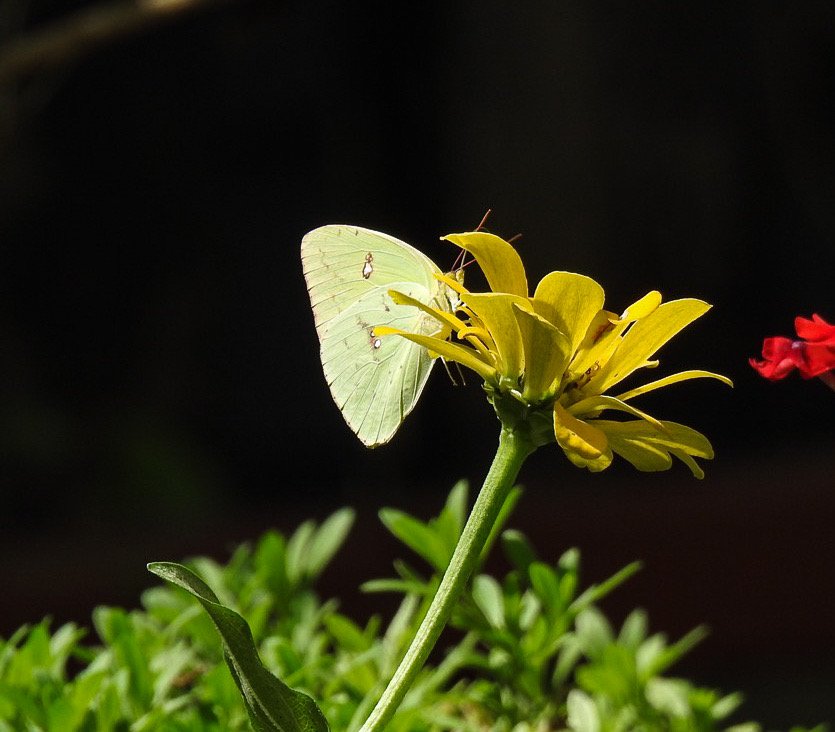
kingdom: Animalia
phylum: Arthropoda
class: Insecta
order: Lepidoptera
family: Pieridae
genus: Phoebis
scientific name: Phoebis sennae
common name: Cloudless Sulphur
